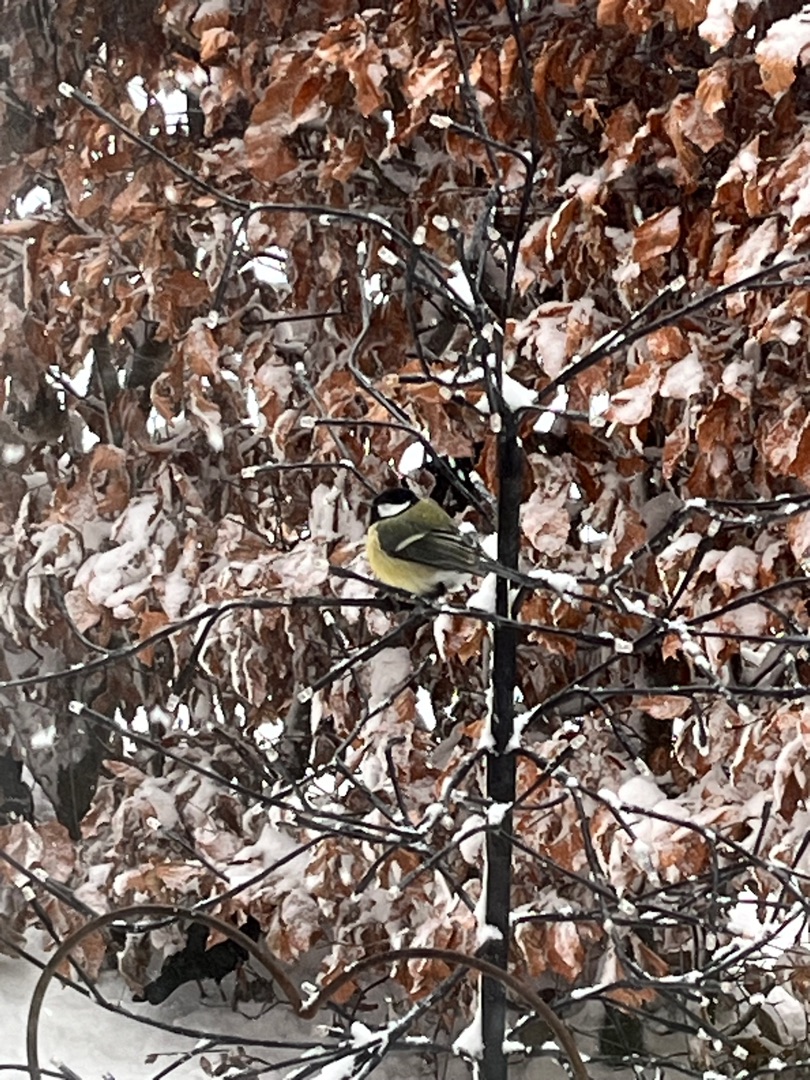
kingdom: Animalia
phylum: Chordata
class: Aves
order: Passeriformes
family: Paridae
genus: Parus
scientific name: Parus major
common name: Musvit
